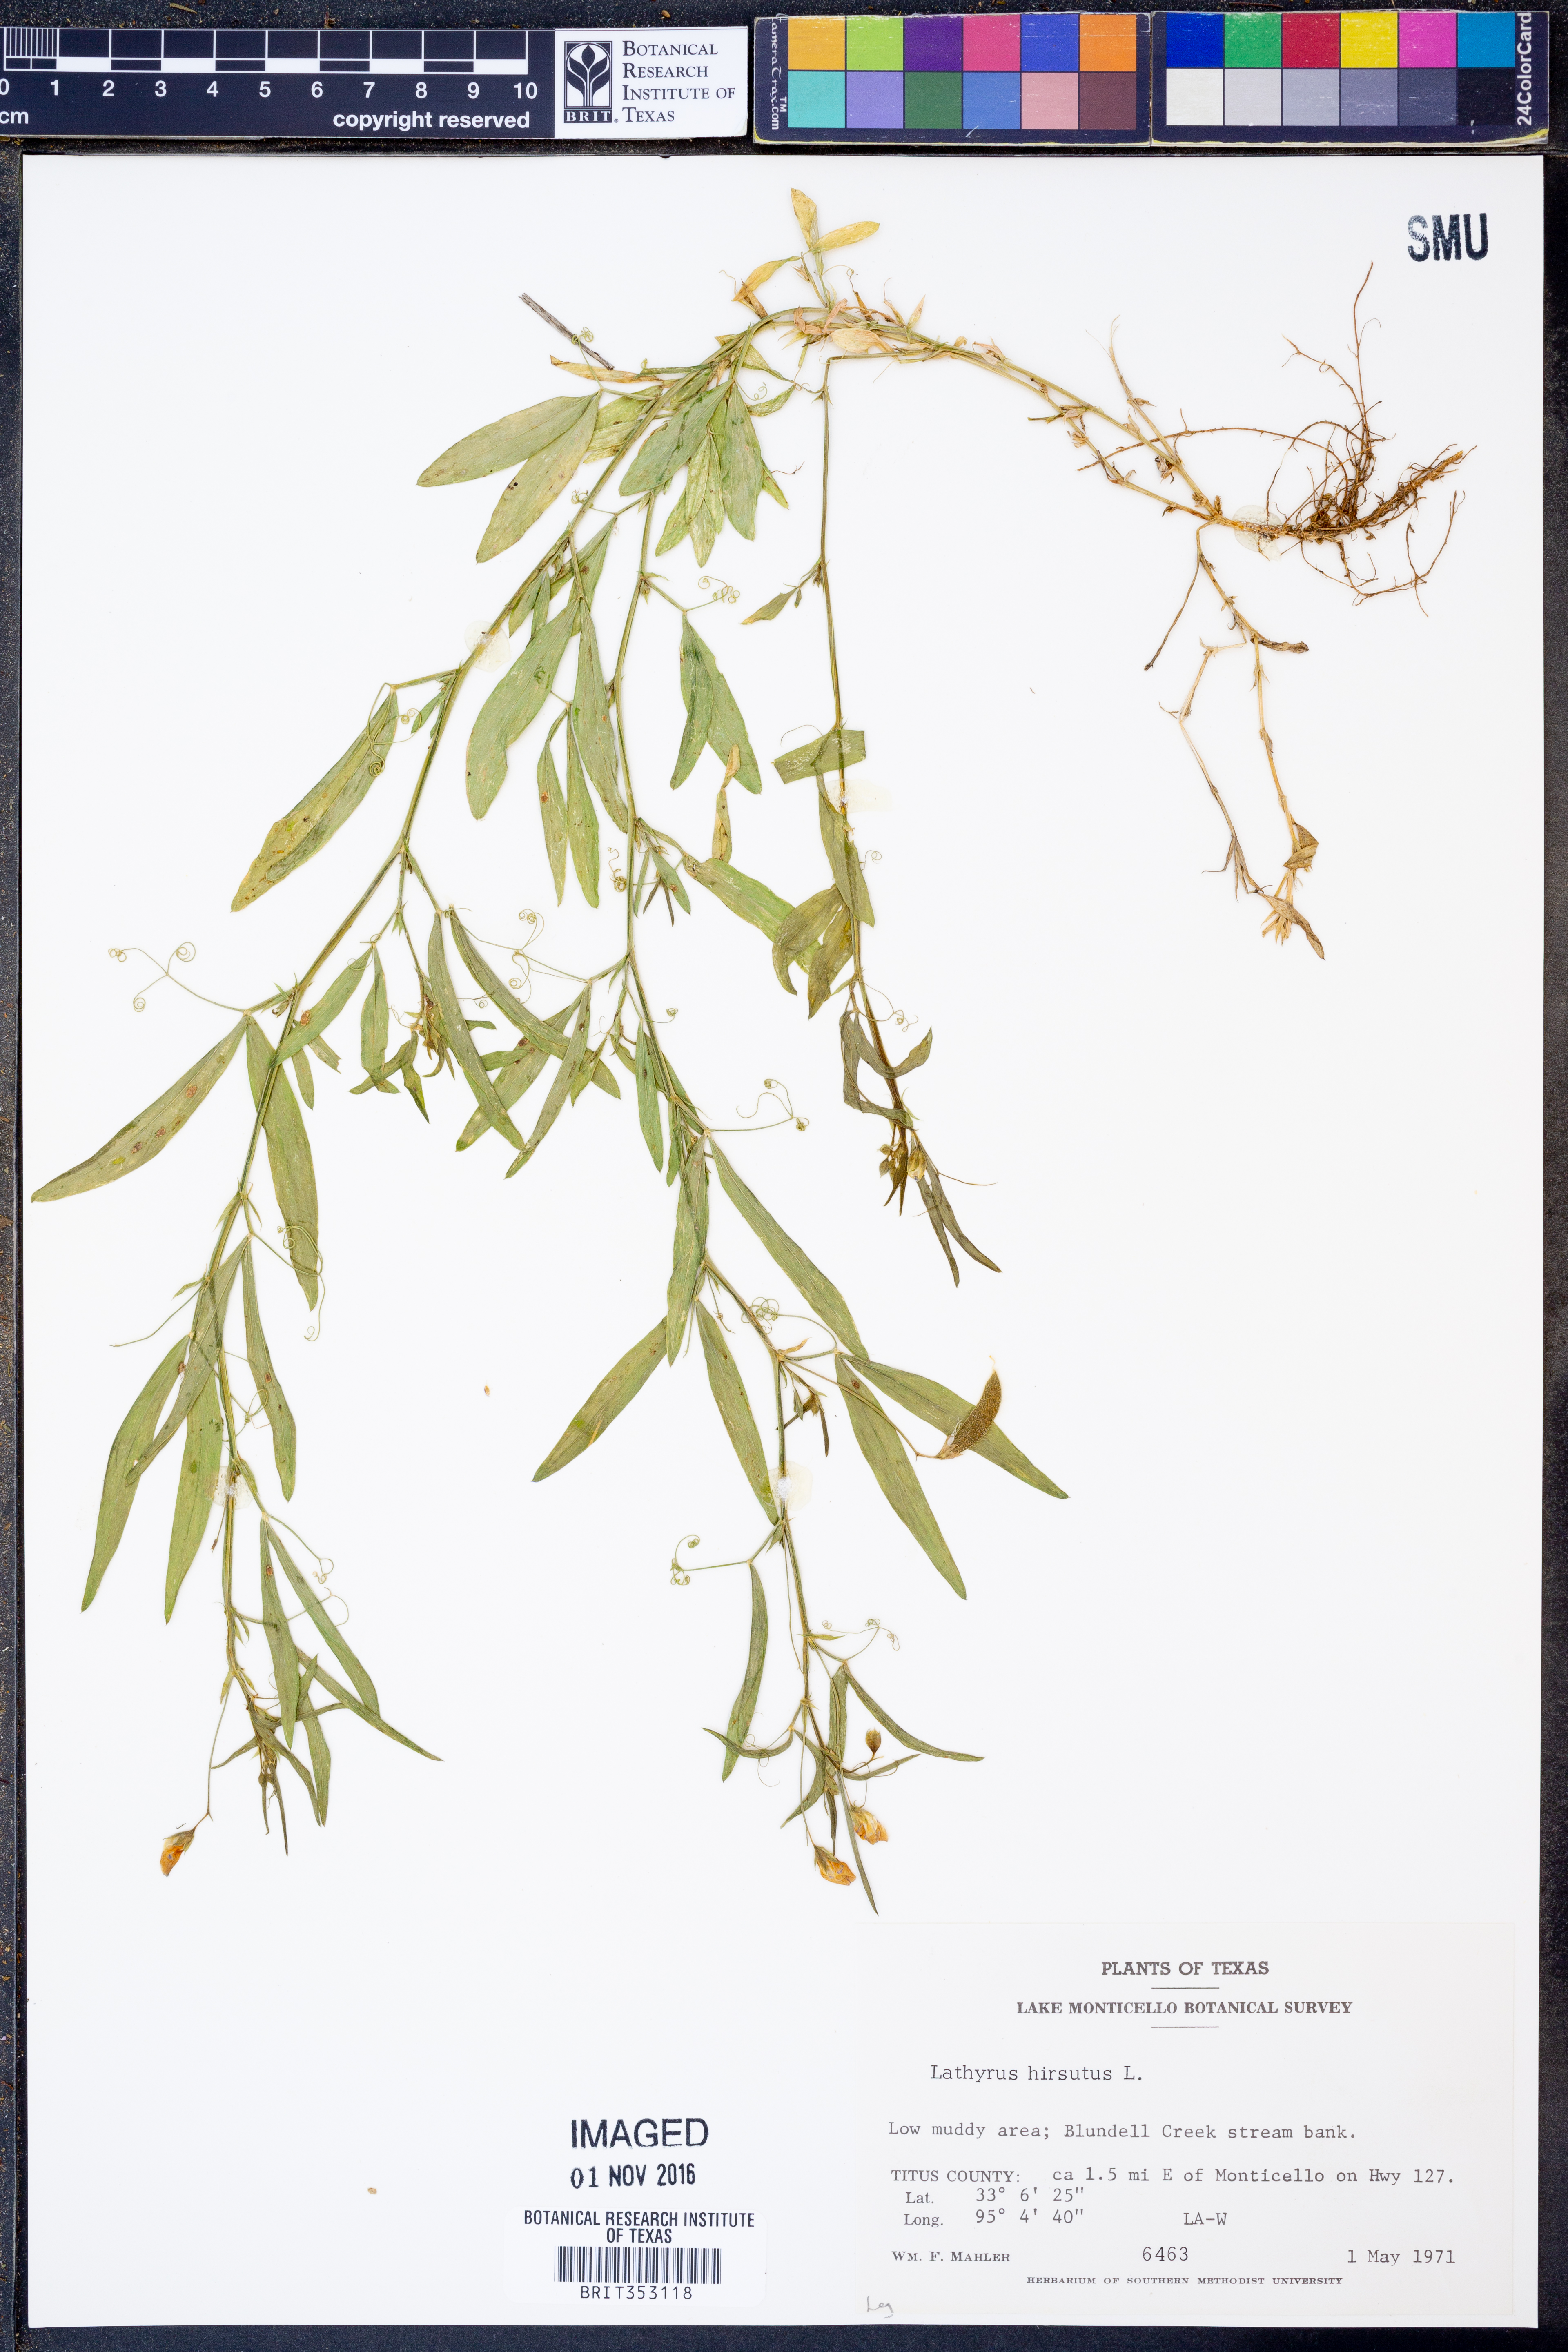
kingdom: Plantae
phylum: Tracheophyta
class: Magnoliopsida
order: Fabales
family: Fabaceae
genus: Lathyrus
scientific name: Lathyrus hirsutus
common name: Hairy vetchling
